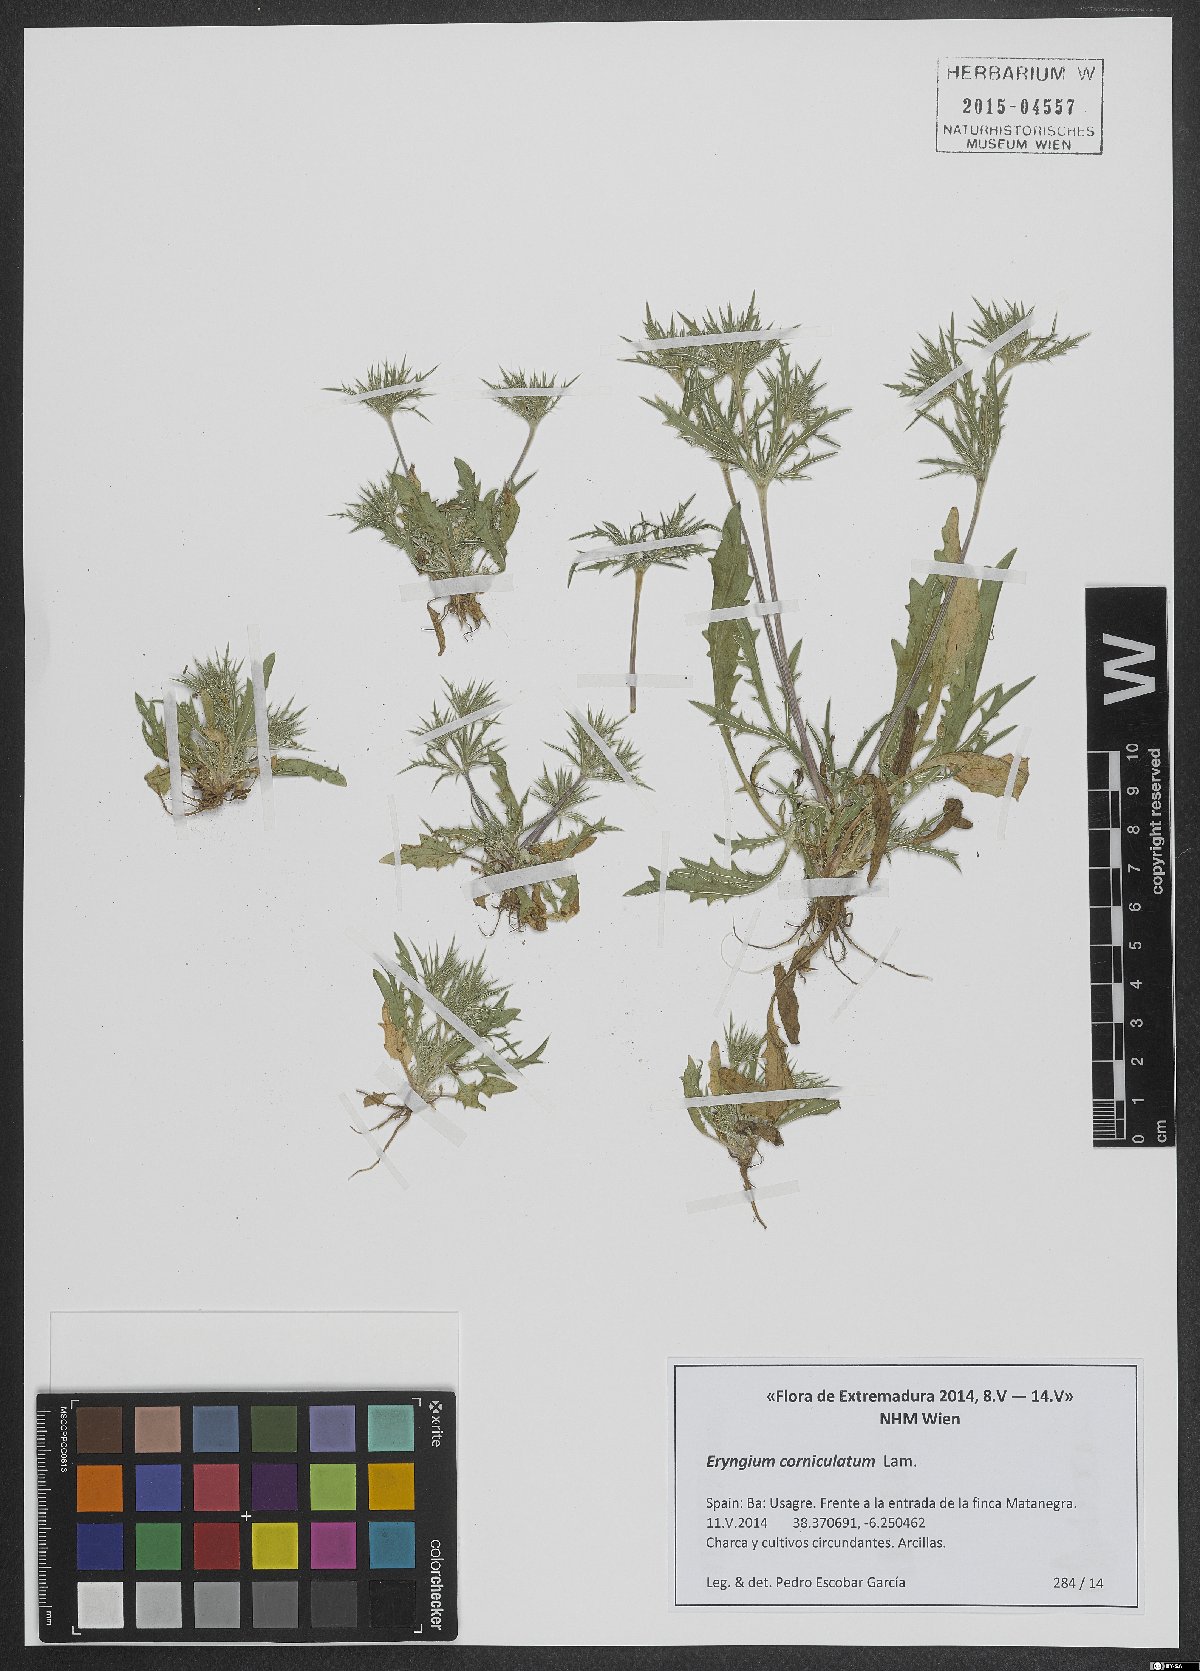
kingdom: Plantae
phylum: Tracheophyta
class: Magnoliopsida
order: Apiales
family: Apiaceae
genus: Eryngium
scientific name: Eryngium corniculatum
